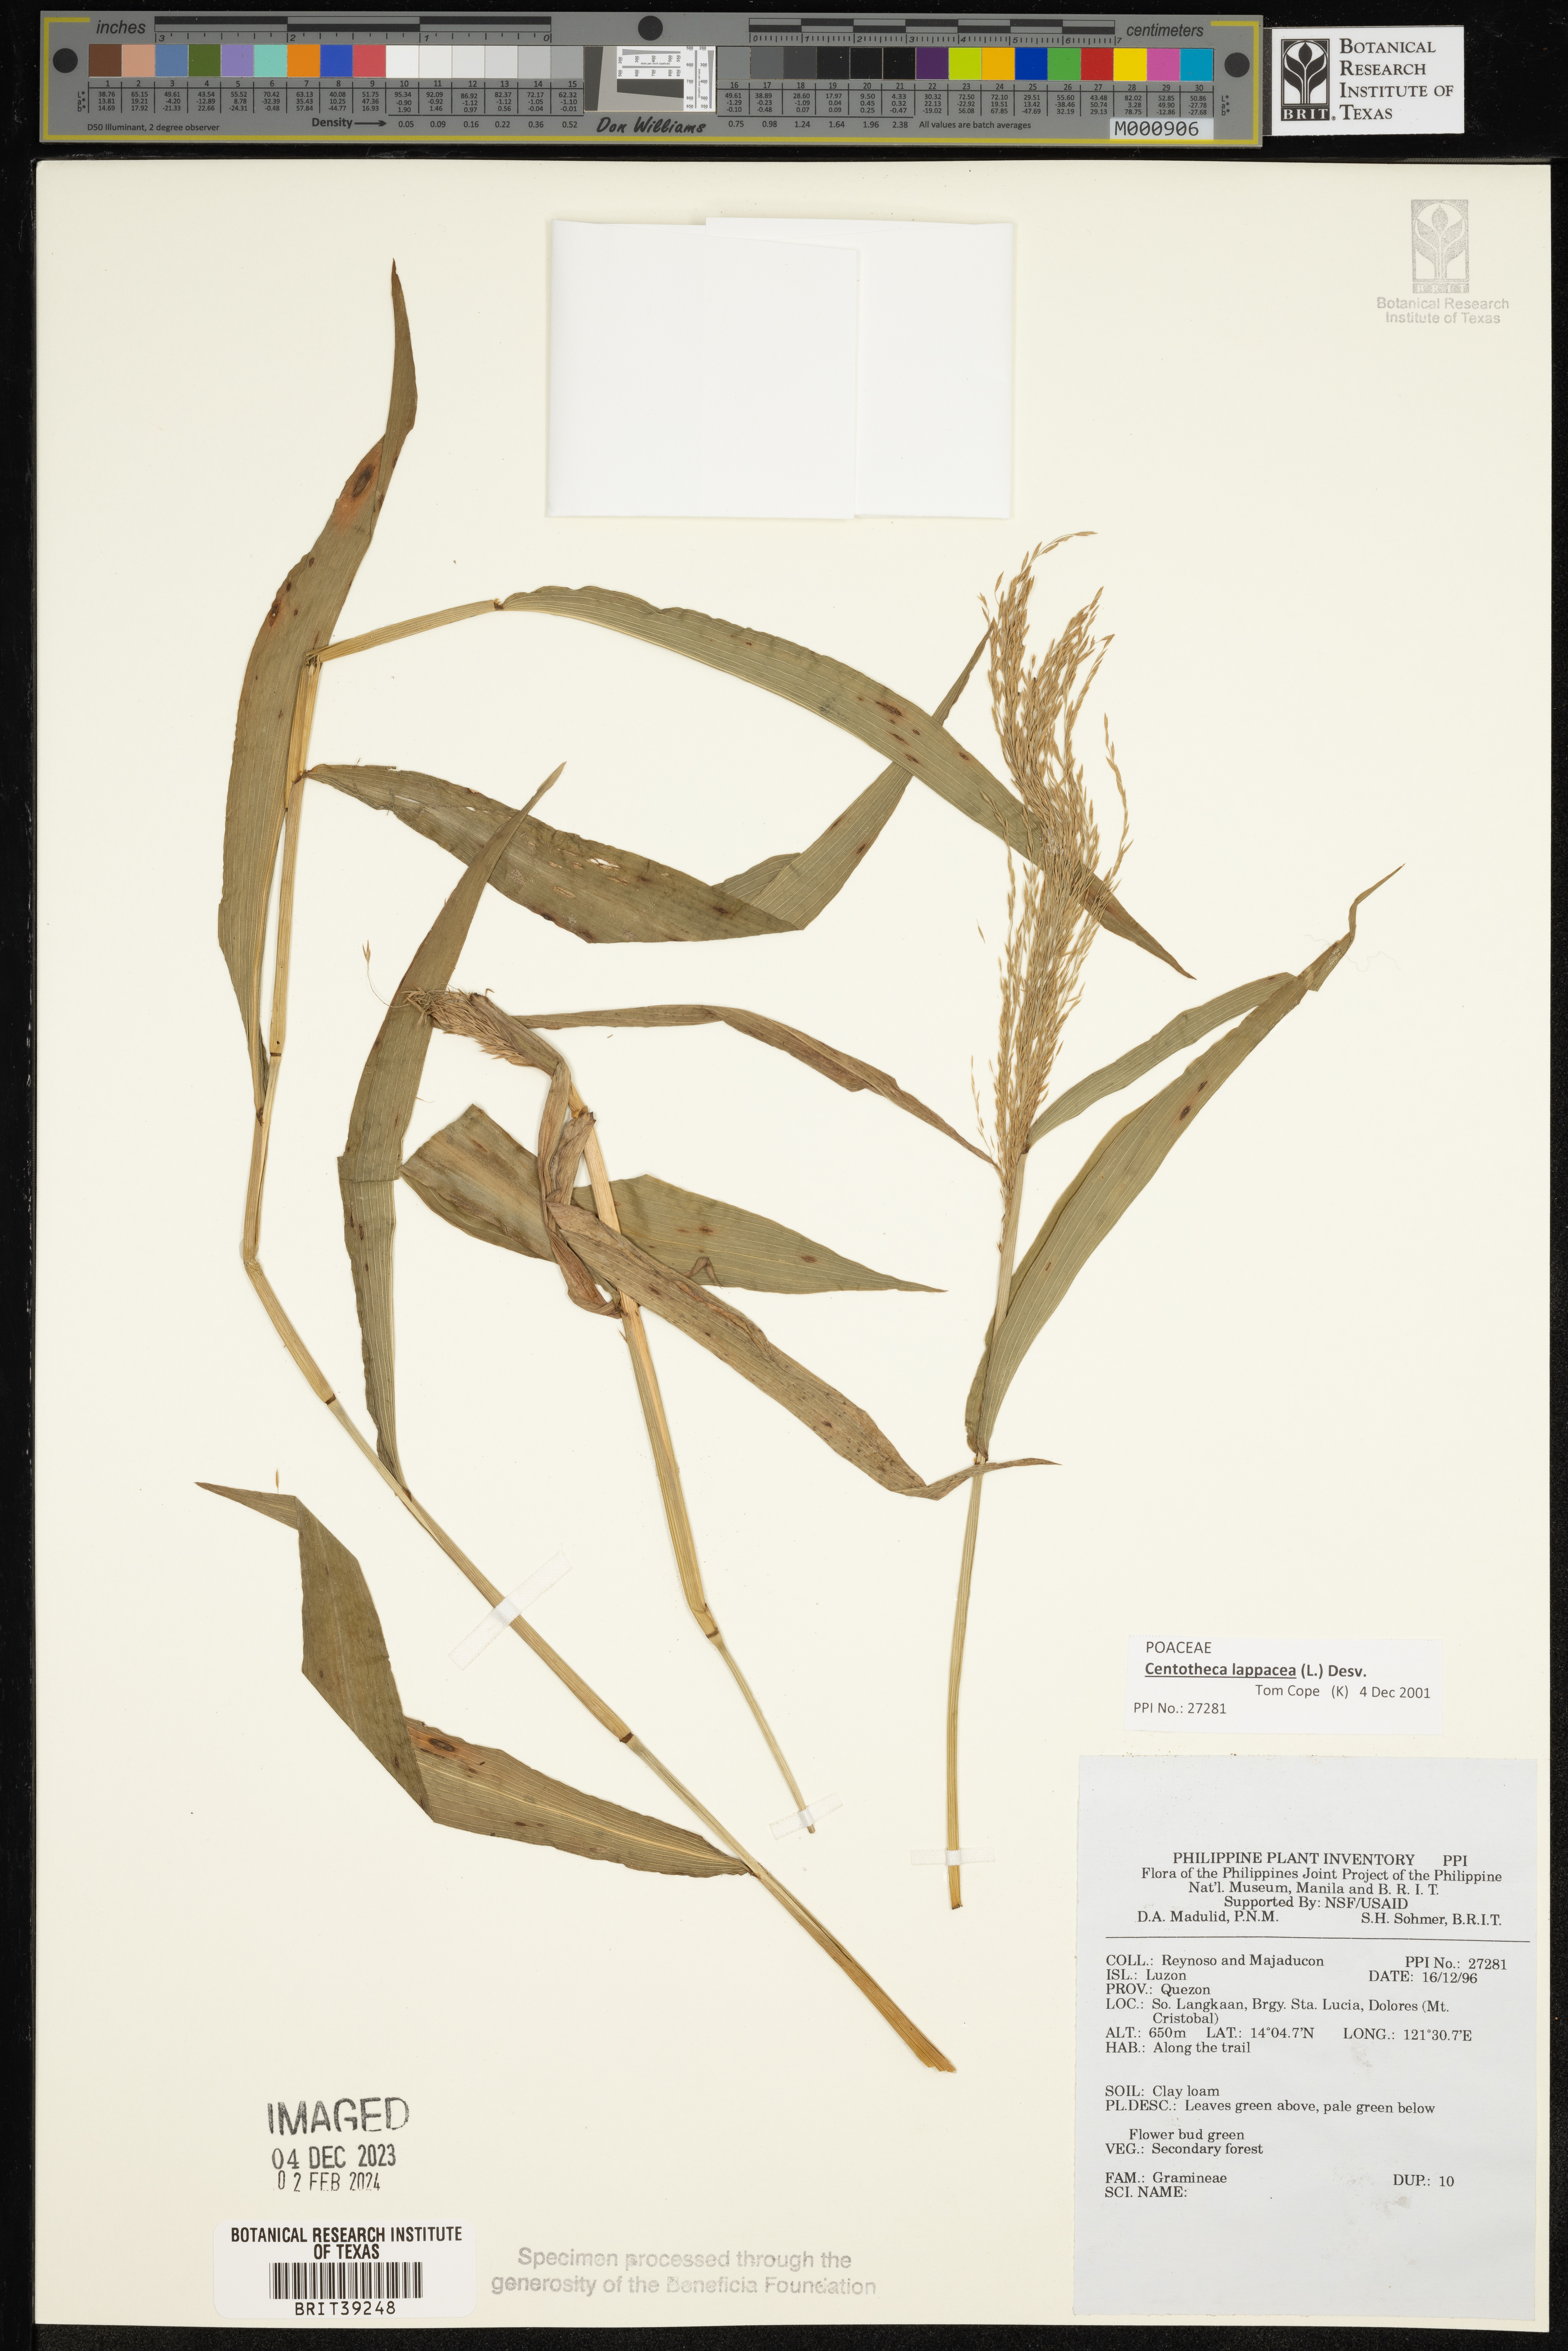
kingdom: Plantae
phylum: Tracheophyta
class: Liliopsida
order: Poales
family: Poaceae
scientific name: Poaceae
